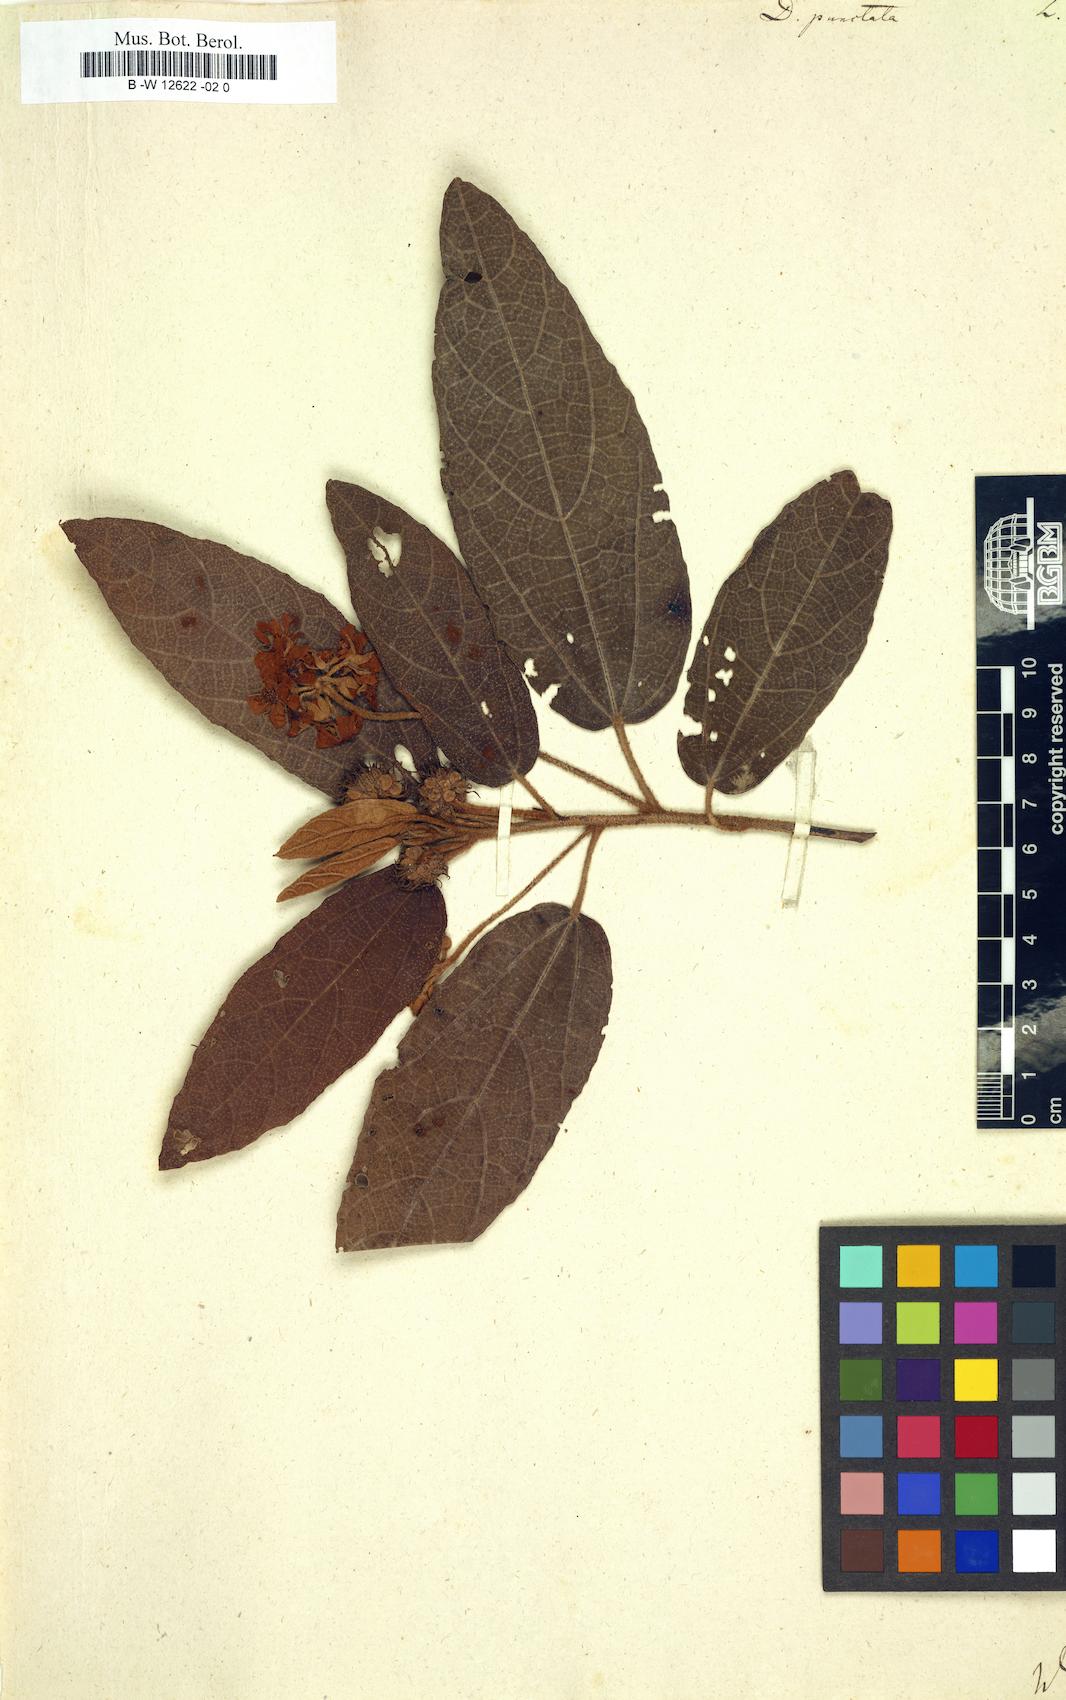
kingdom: Plantae
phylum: Tracheophyta
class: Magnoliopsida
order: Malvales
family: Malvaceae
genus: Dombeya
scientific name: Dombeya punctata
